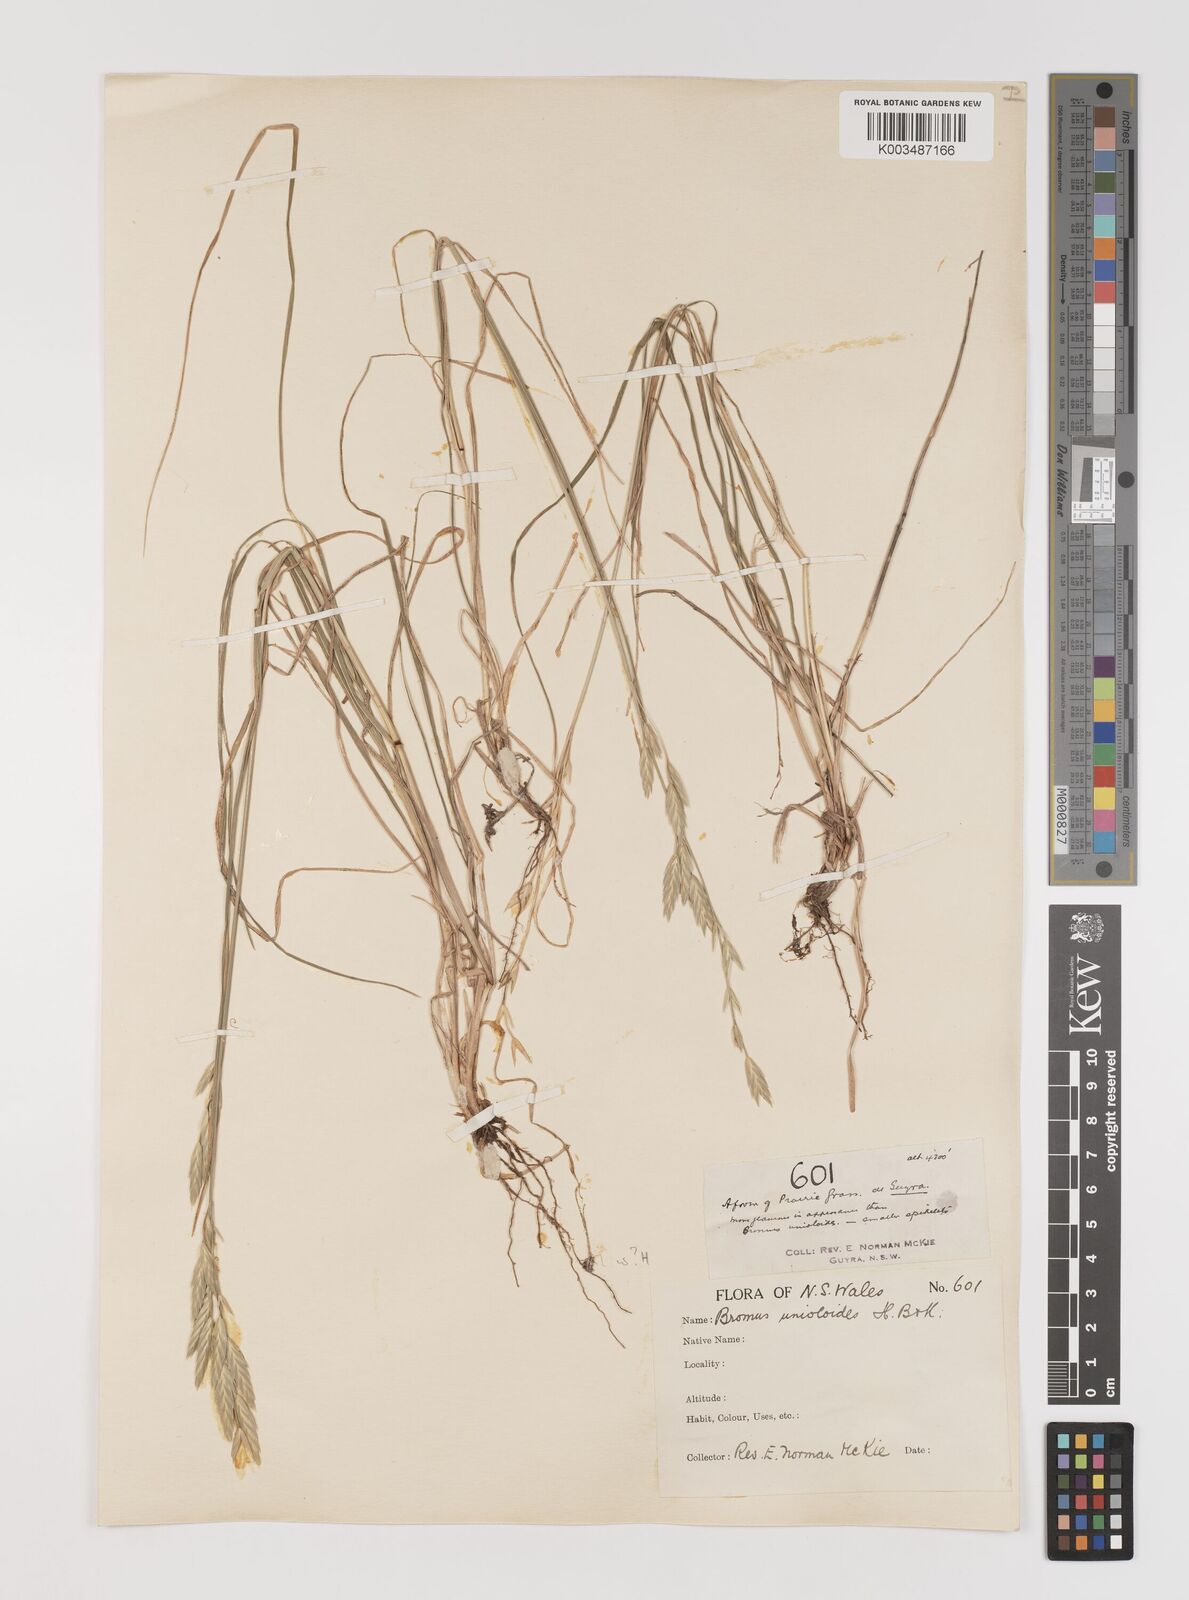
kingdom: Plantae
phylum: Tracheophyta
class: Liliopsida
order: Poales
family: Poaceae
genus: Bromus
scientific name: Bromus catharticus
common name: Rescuegrass
